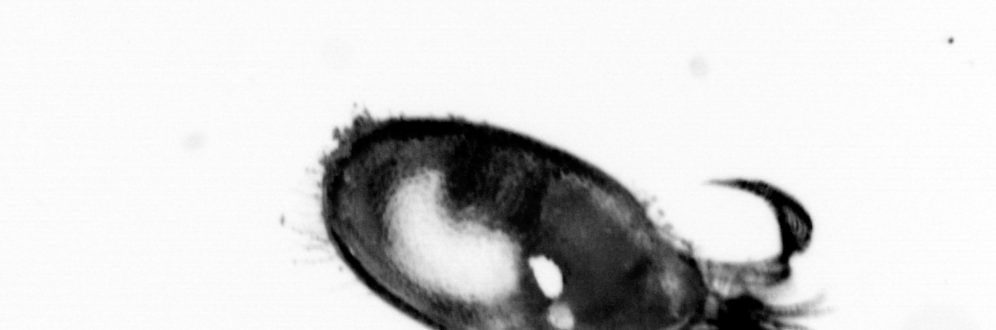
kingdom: Animalia
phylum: Chordata
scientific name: Chordata
